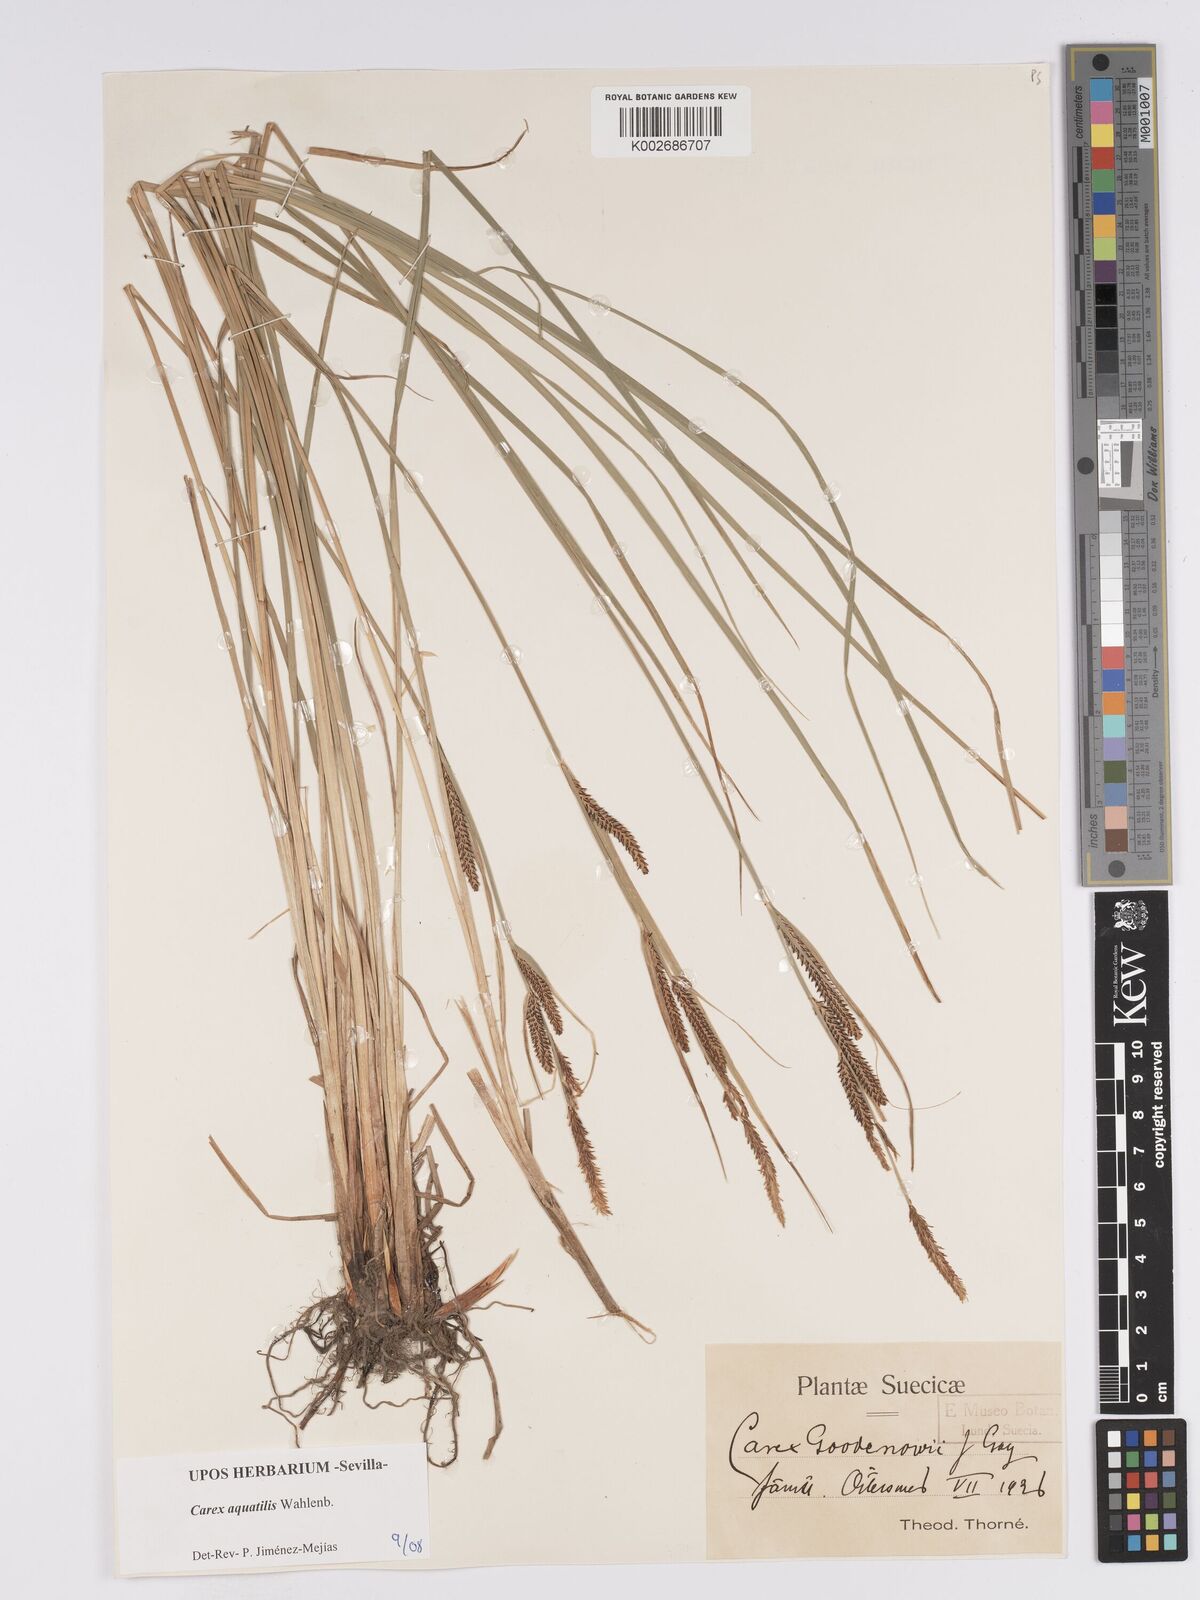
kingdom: Plantae
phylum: Tracheophyta
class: Liliopsida
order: Poales
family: Cyperaceae
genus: Carex
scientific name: Carex aquatilis
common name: Water sedge
